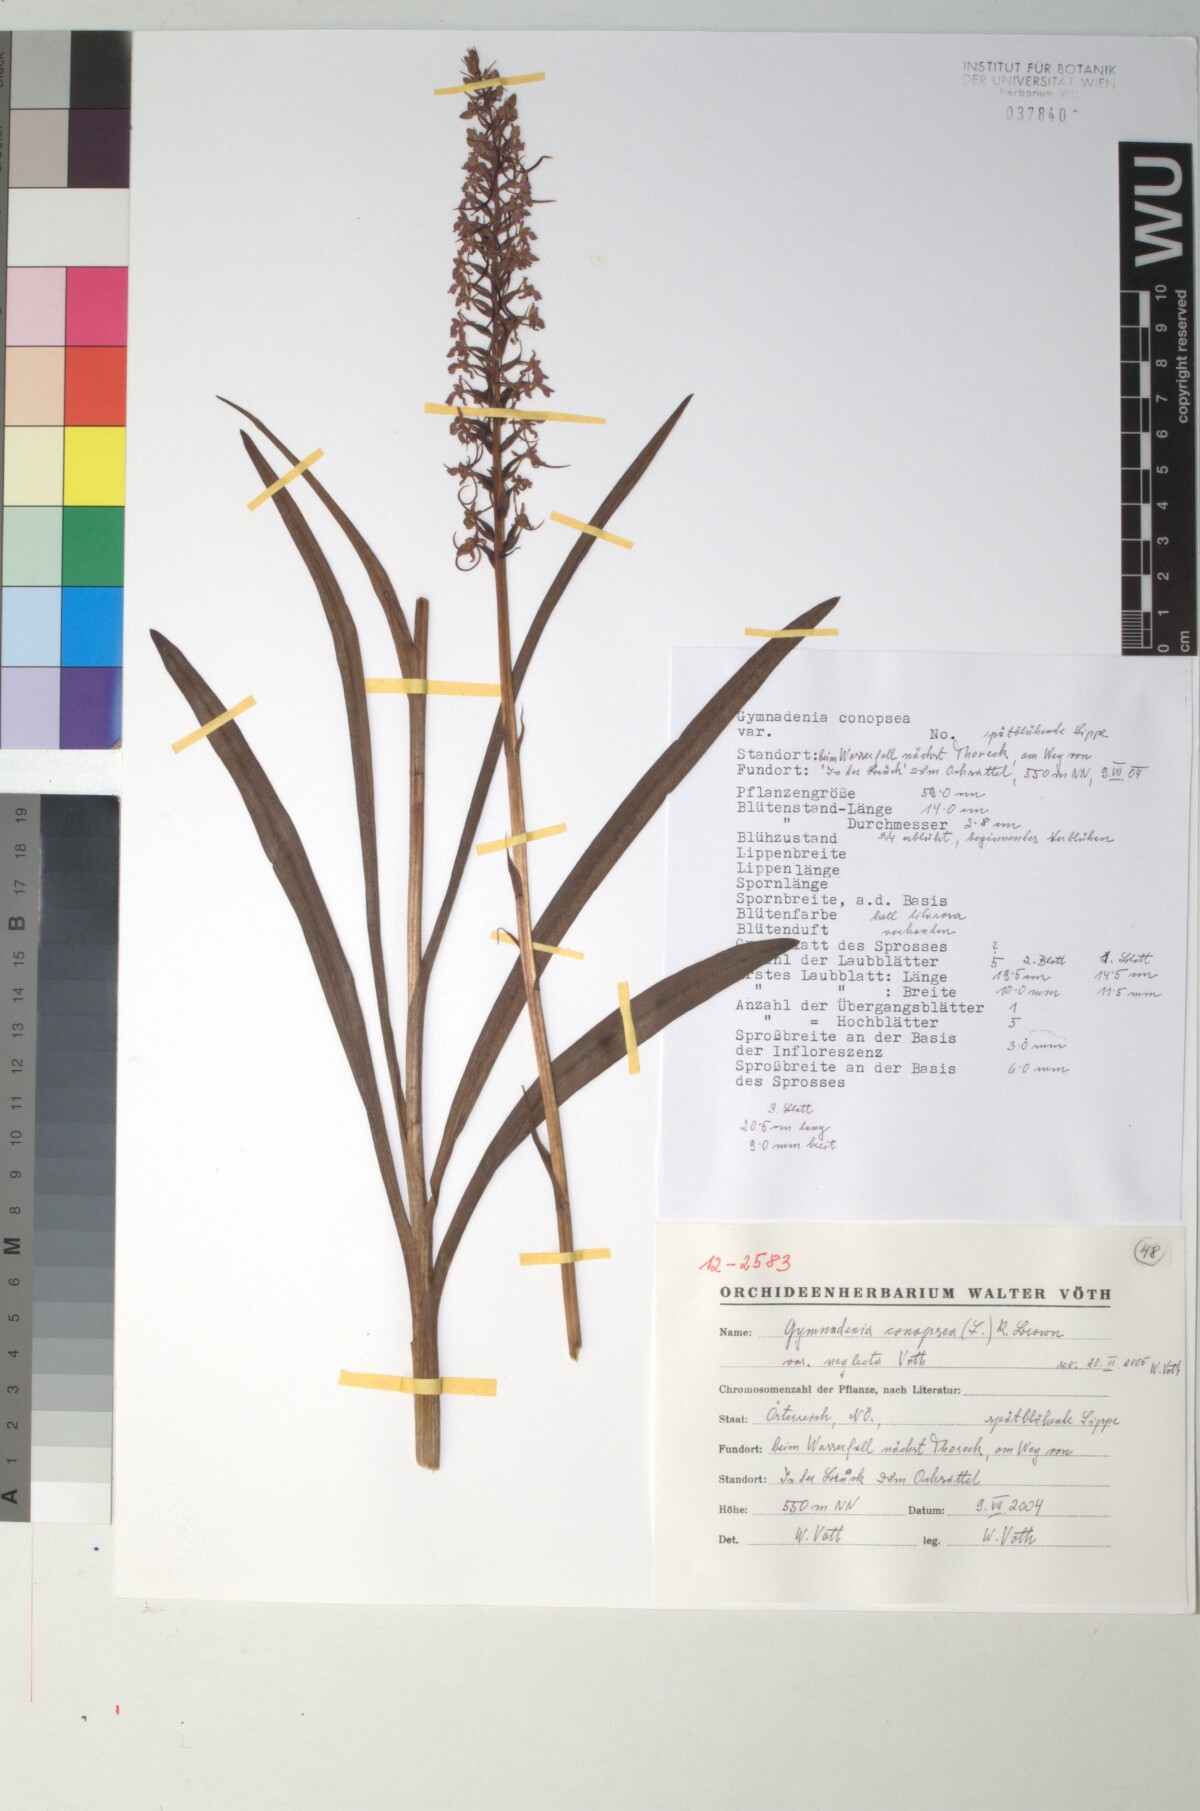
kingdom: Plantae
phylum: Tracheophyta
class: Liliopsida
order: Asparagales
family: Orchidaceae
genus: Gymnadenia
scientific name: Gymnadenia conopsea
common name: Fragrant orchid
